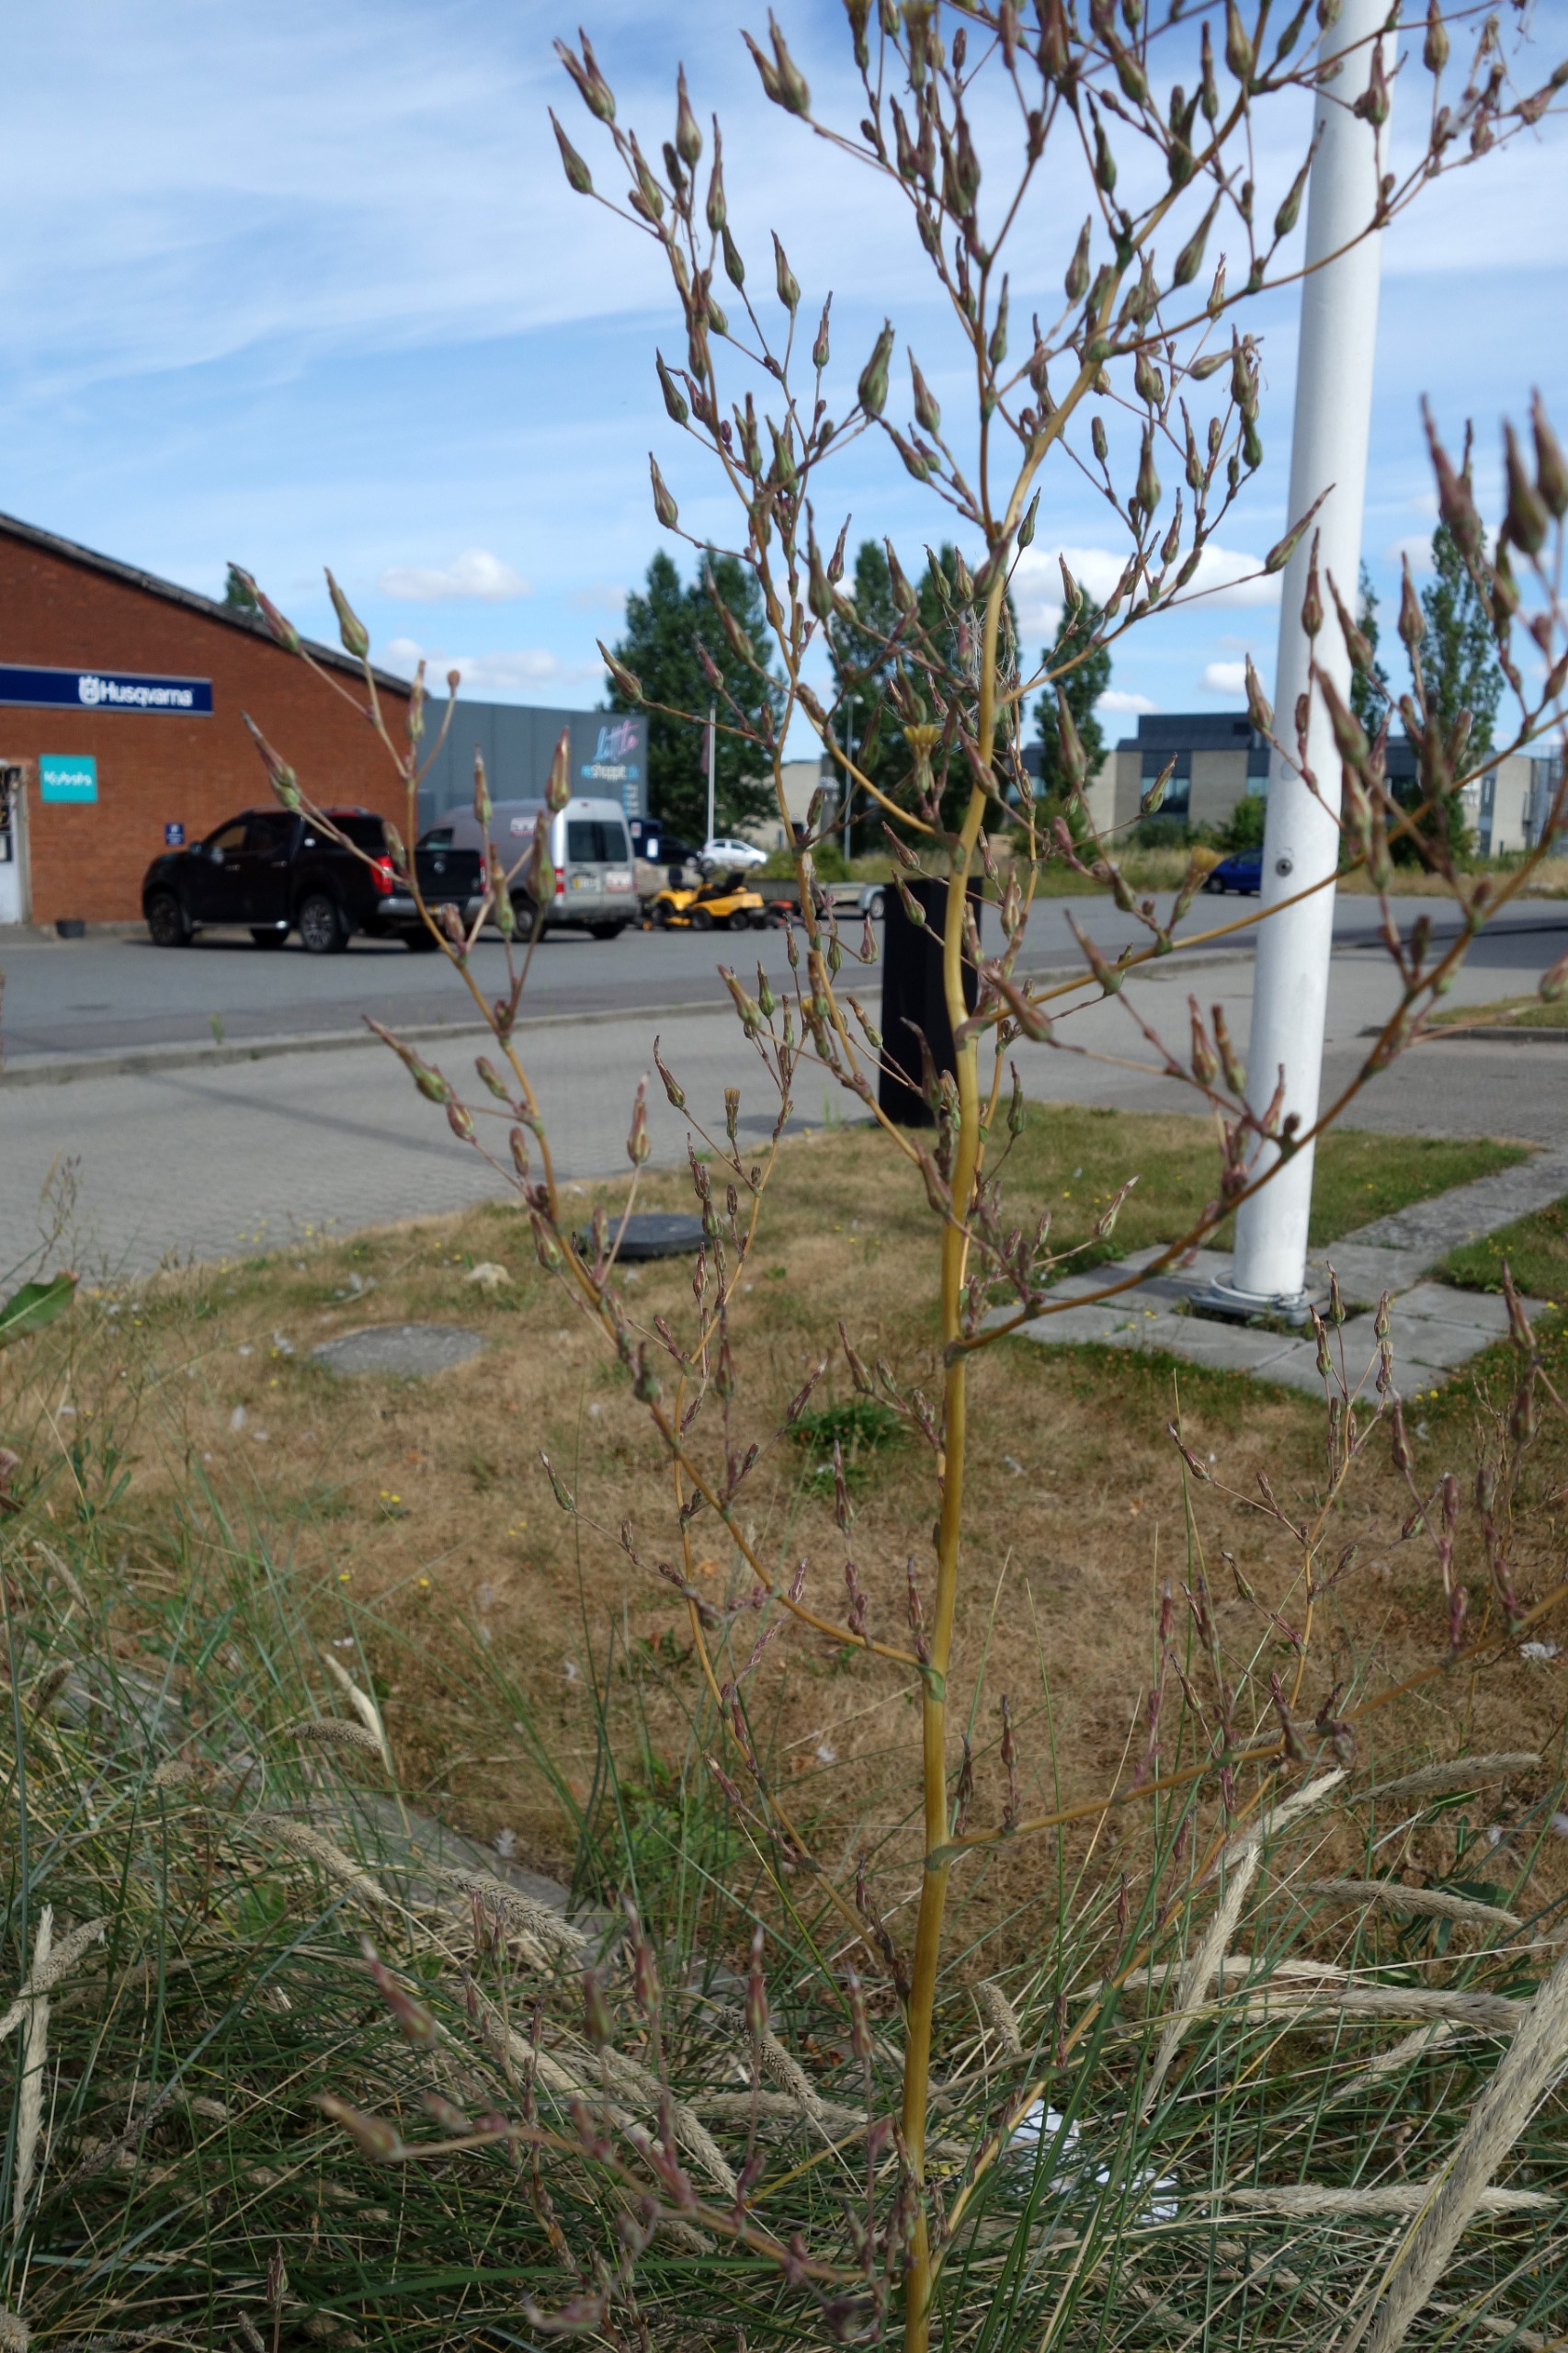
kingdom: Plantae
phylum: Tracheophyta
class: Magnoliopsida
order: Asterales
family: Asteraceae
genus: Lactuca
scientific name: Lactuca serriola
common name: Tornet salat
